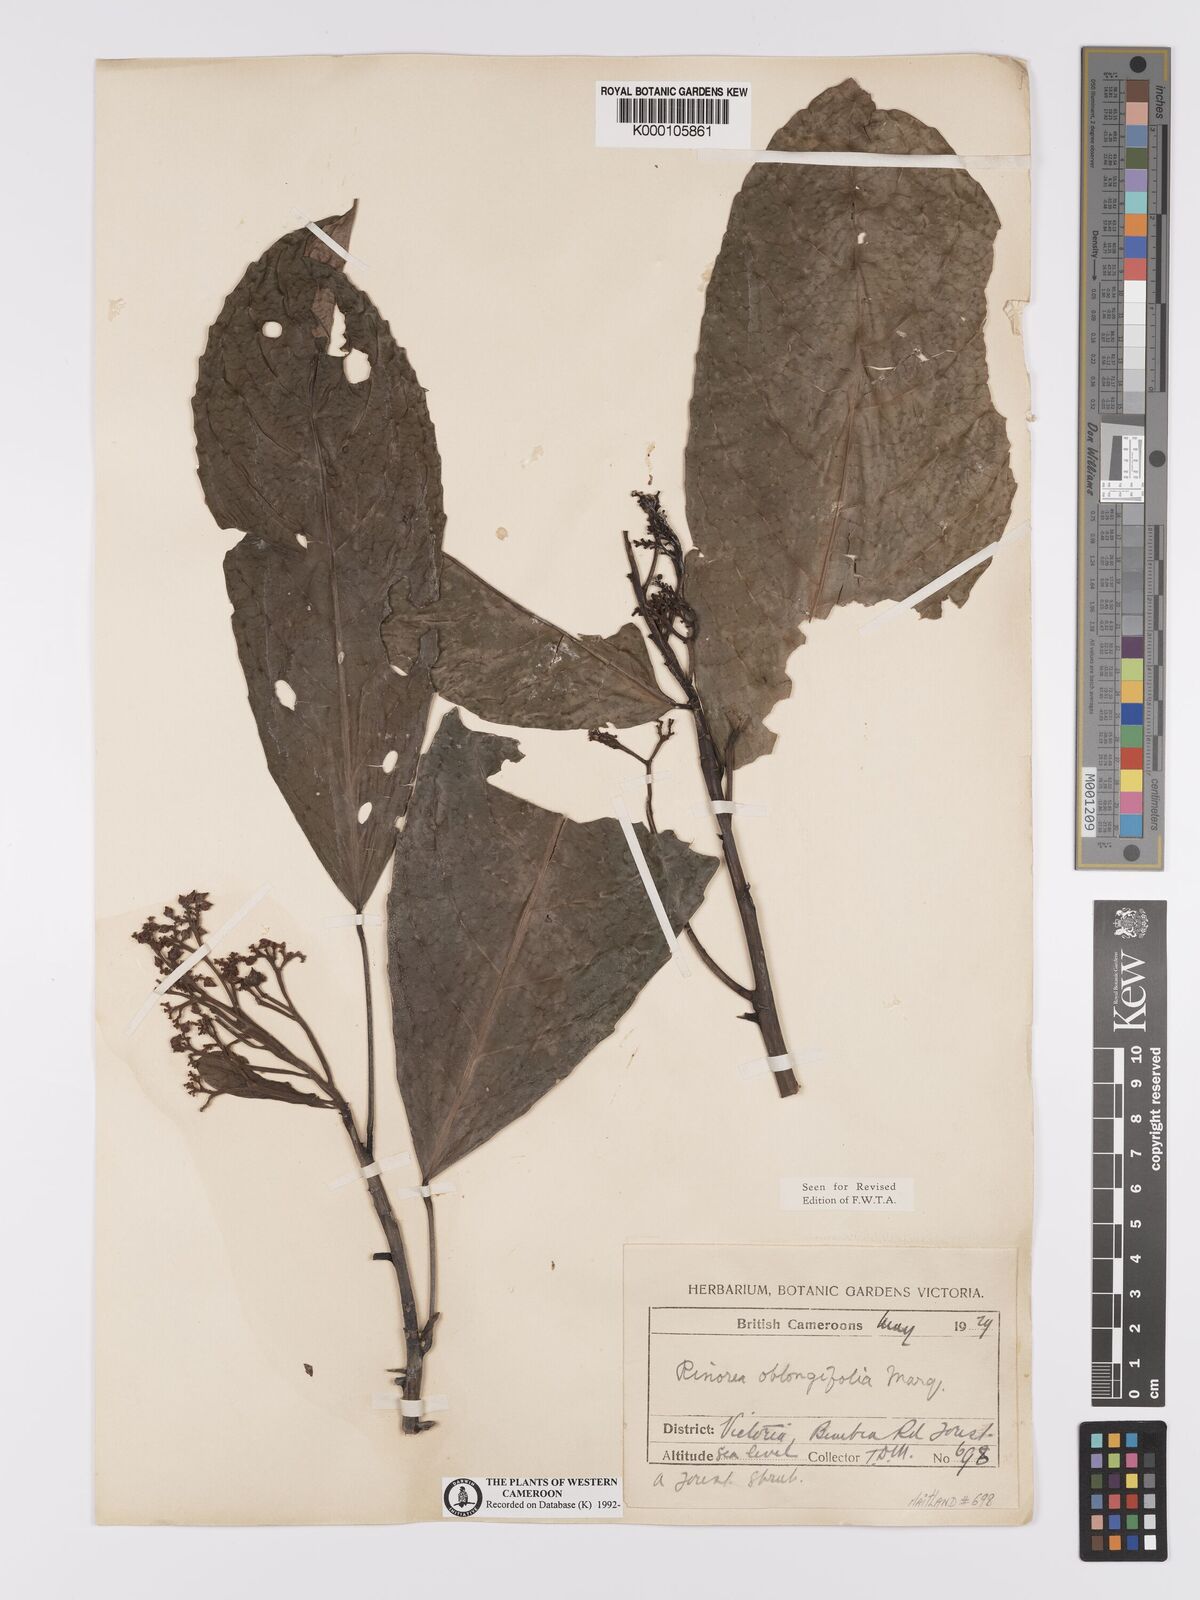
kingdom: Plantae
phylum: Tracheophyta
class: Magnoliopsida
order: Apiales
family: Pittosporaceae
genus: Marianthus
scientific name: Marianthus coeruleopunctatus
